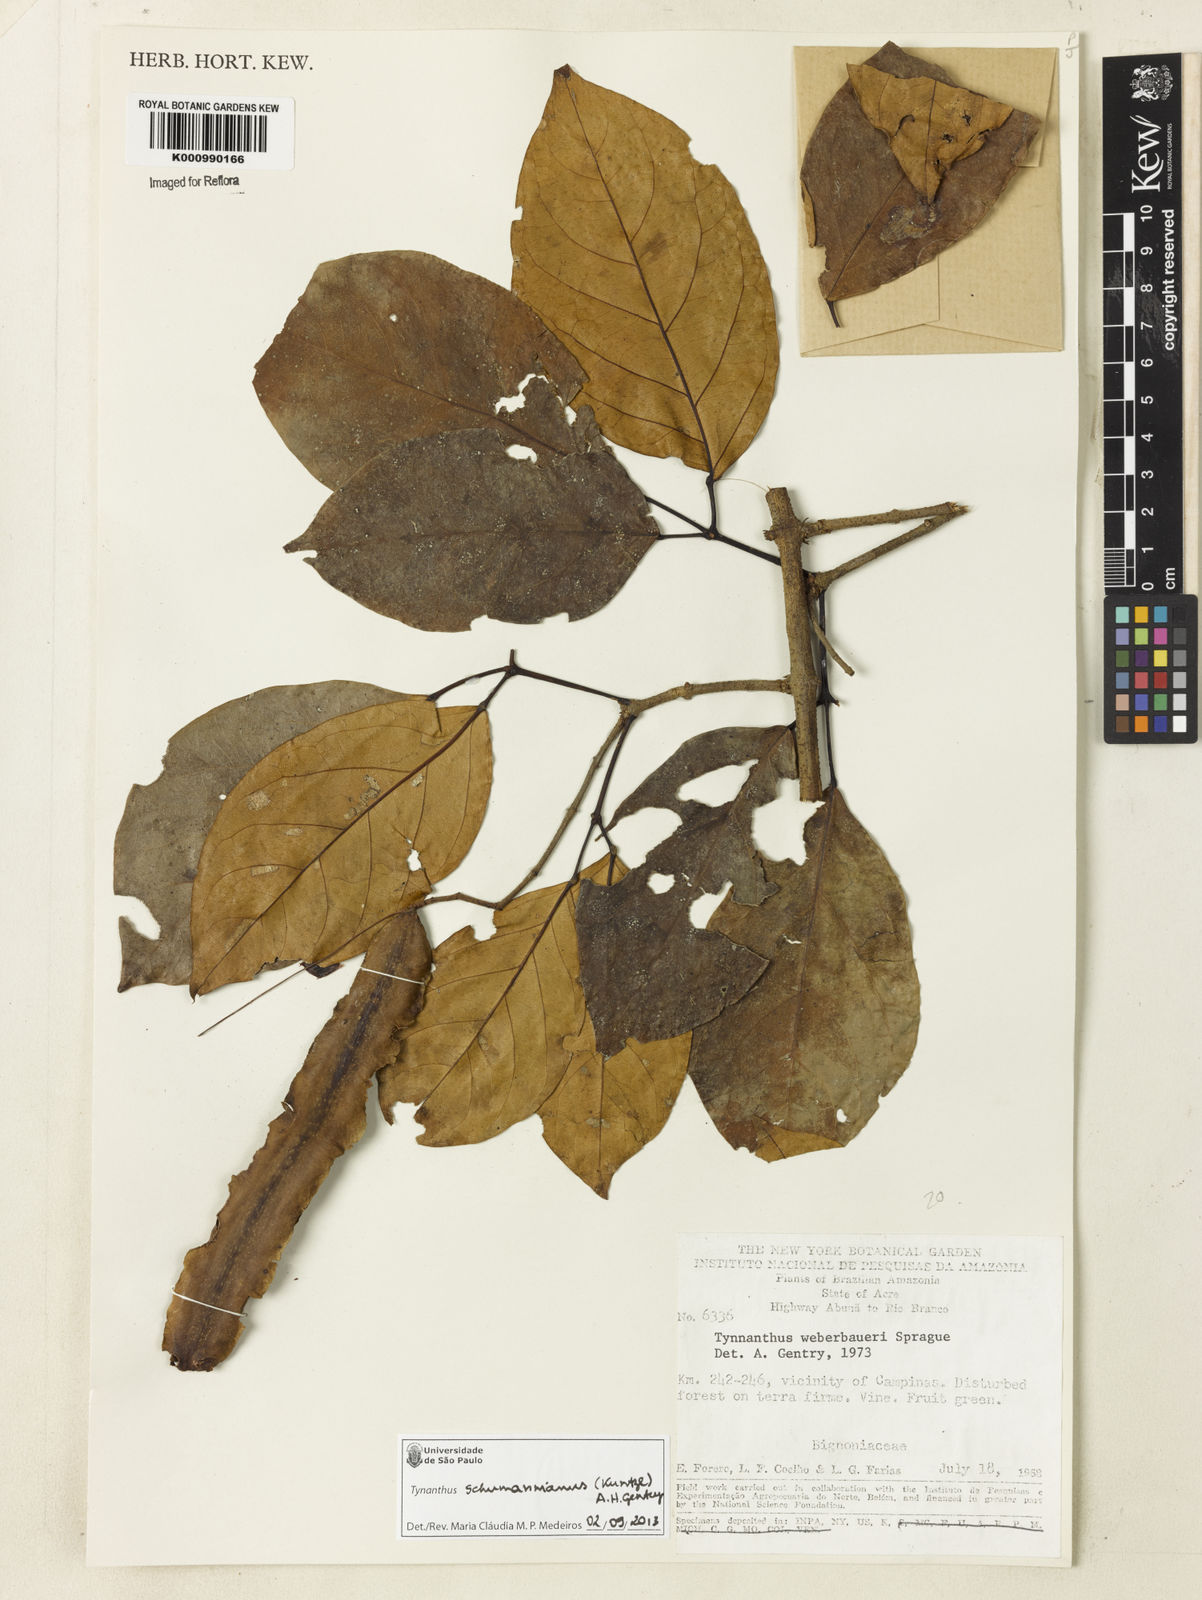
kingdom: Plantae
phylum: Tracheophyta
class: Magnoliopsida
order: Lamiales
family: Bignoniaceae
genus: Tynanthus
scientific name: Tynanthus schumannianus
